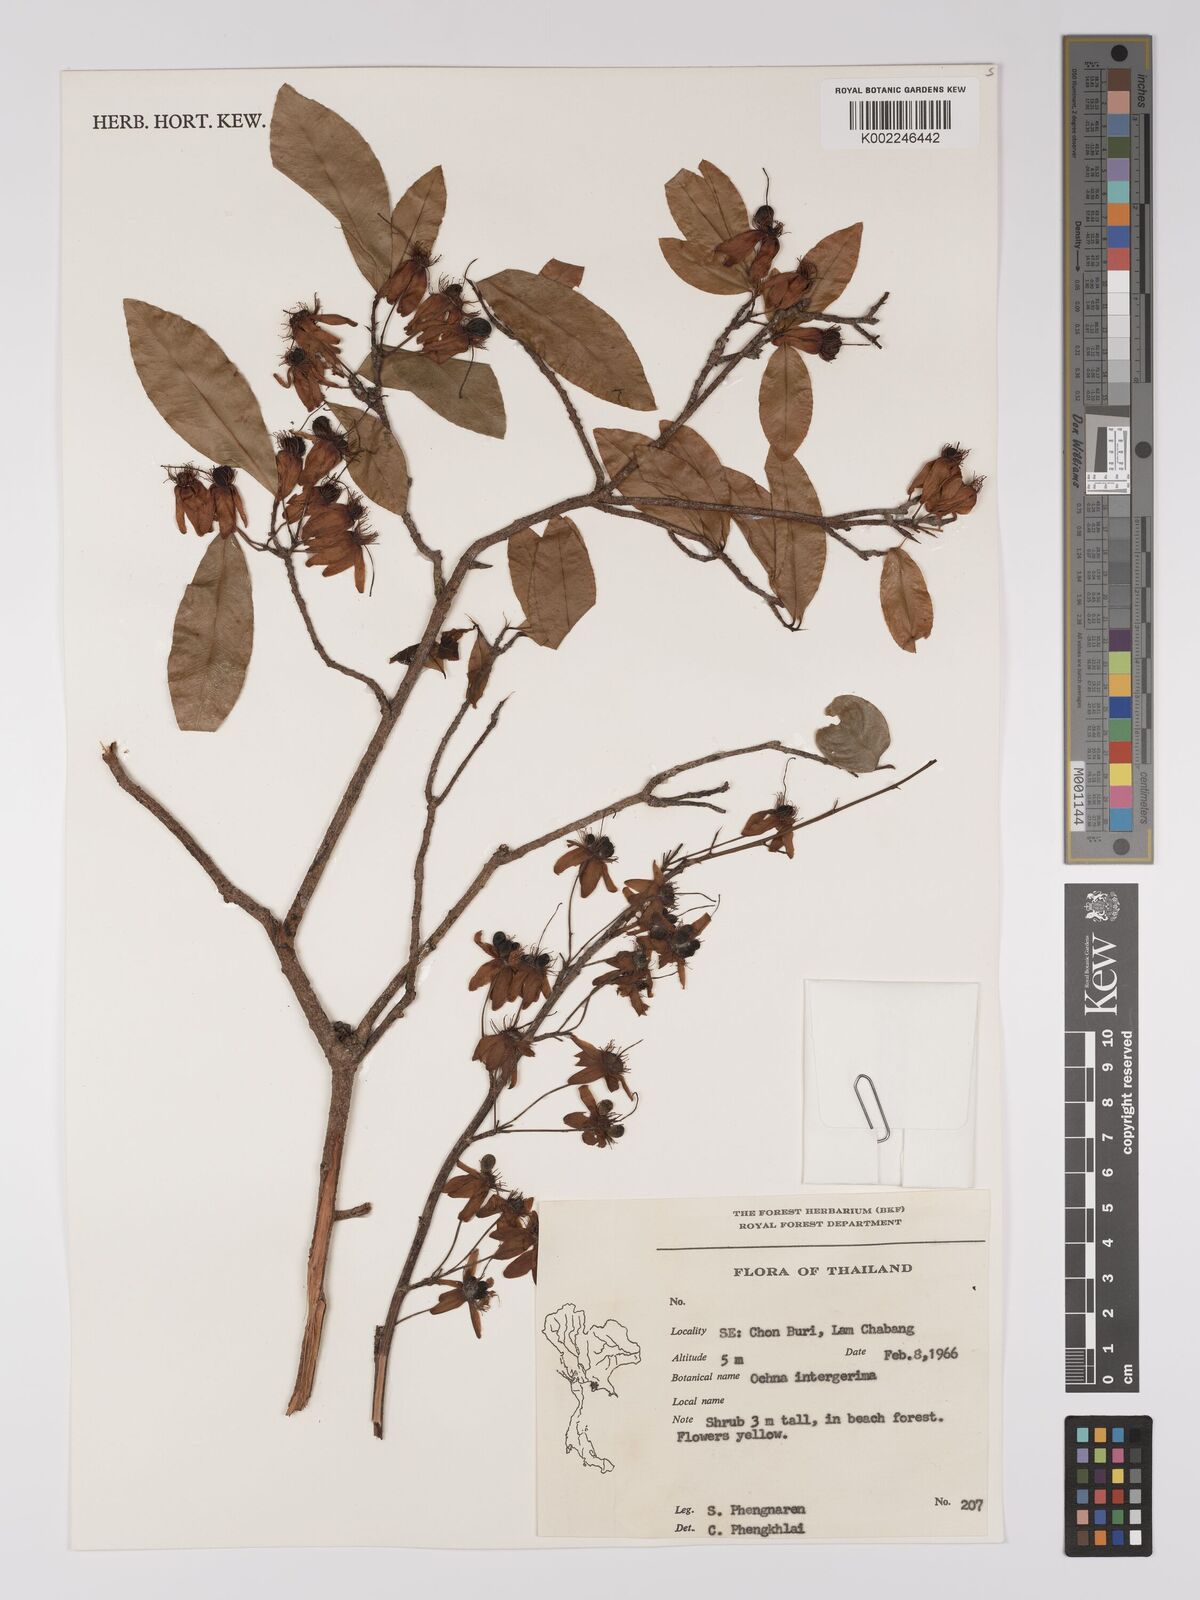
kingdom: Plantae
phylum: Tracheophyta
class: Magnoliopsida
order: Malpighiales
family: Ochnaceae
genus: Ochna
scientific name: Ochna integerrima
